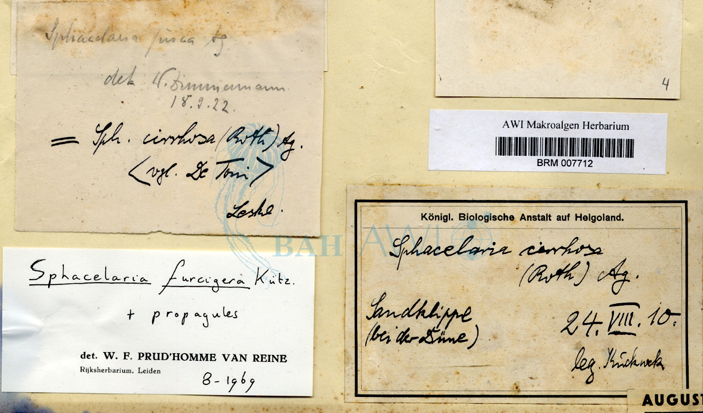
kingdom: Chromista
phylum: Ochrophyta
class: Phaeophyceae
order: Sphacelariales
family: Sphacelariaceae
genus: Sphacelaria
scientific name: Sphacelaria rigidula
